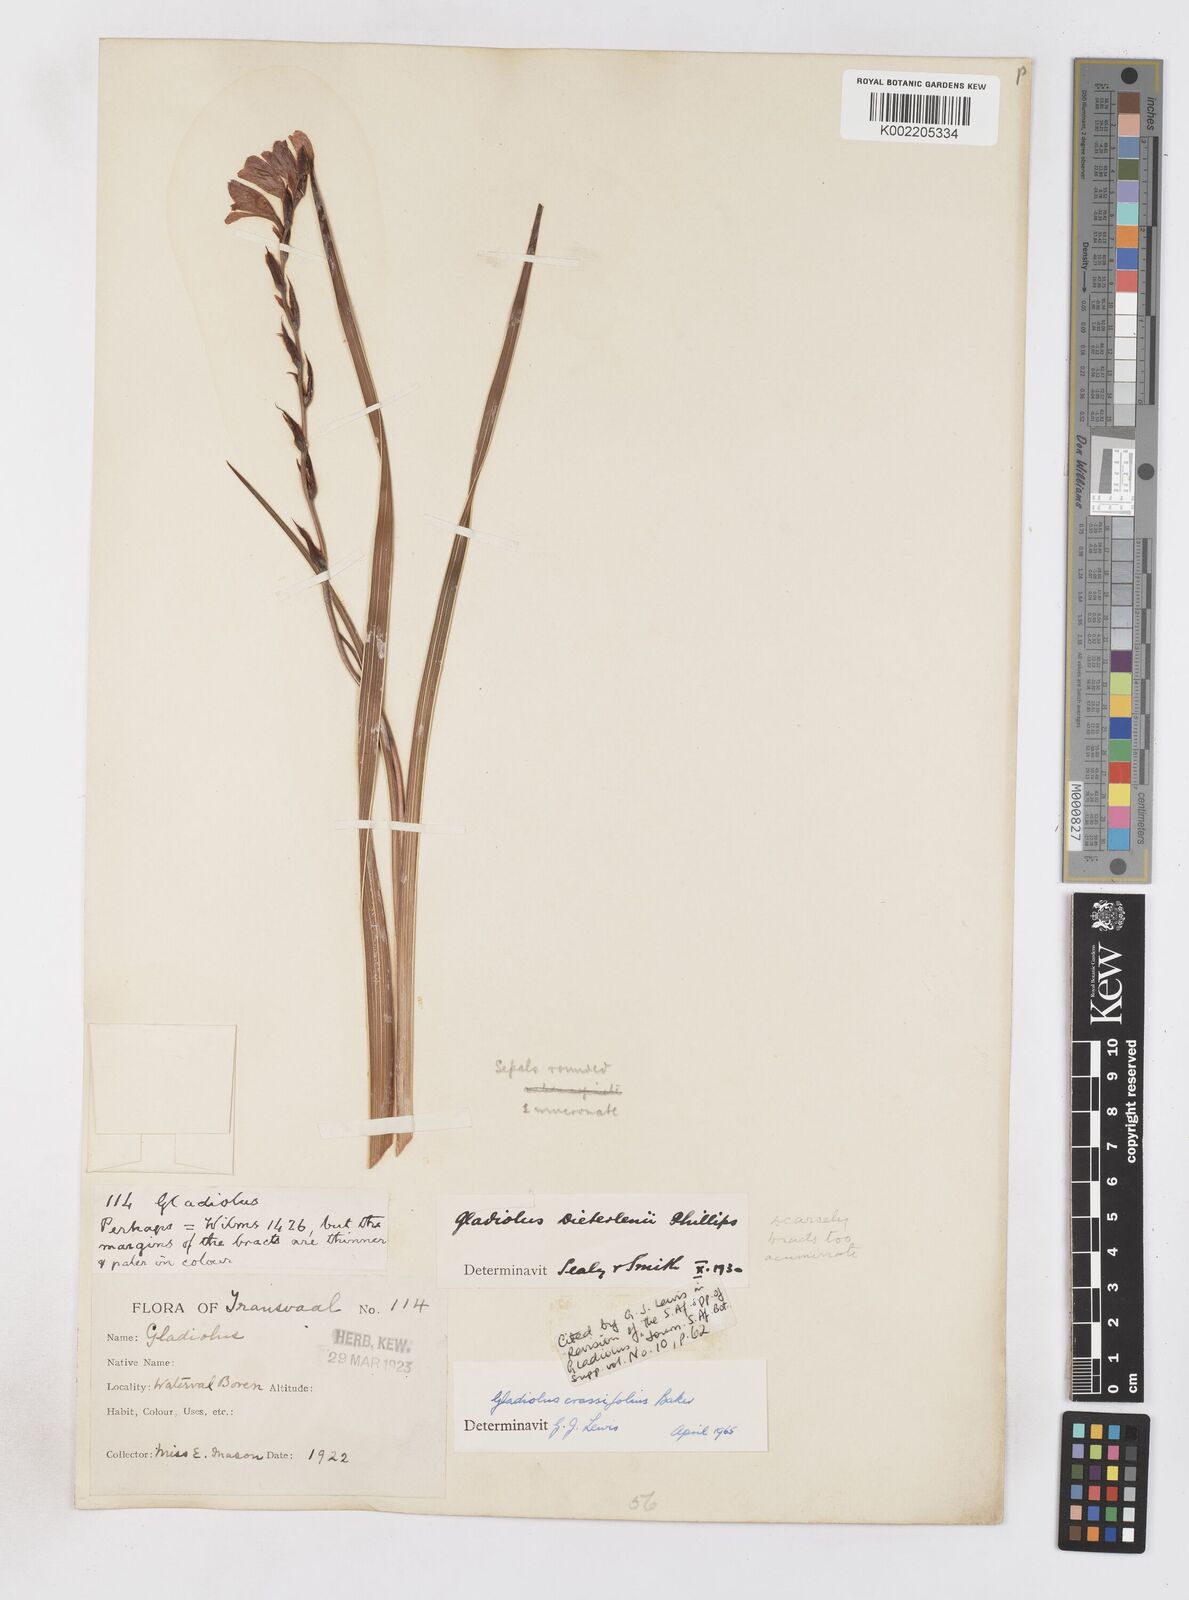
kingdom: Plantae
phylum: Tracheophyta
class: Liliopsida
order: Asparagales
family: Iridaceae
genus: Gladiolus
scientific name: Gladiolus crassifolius
